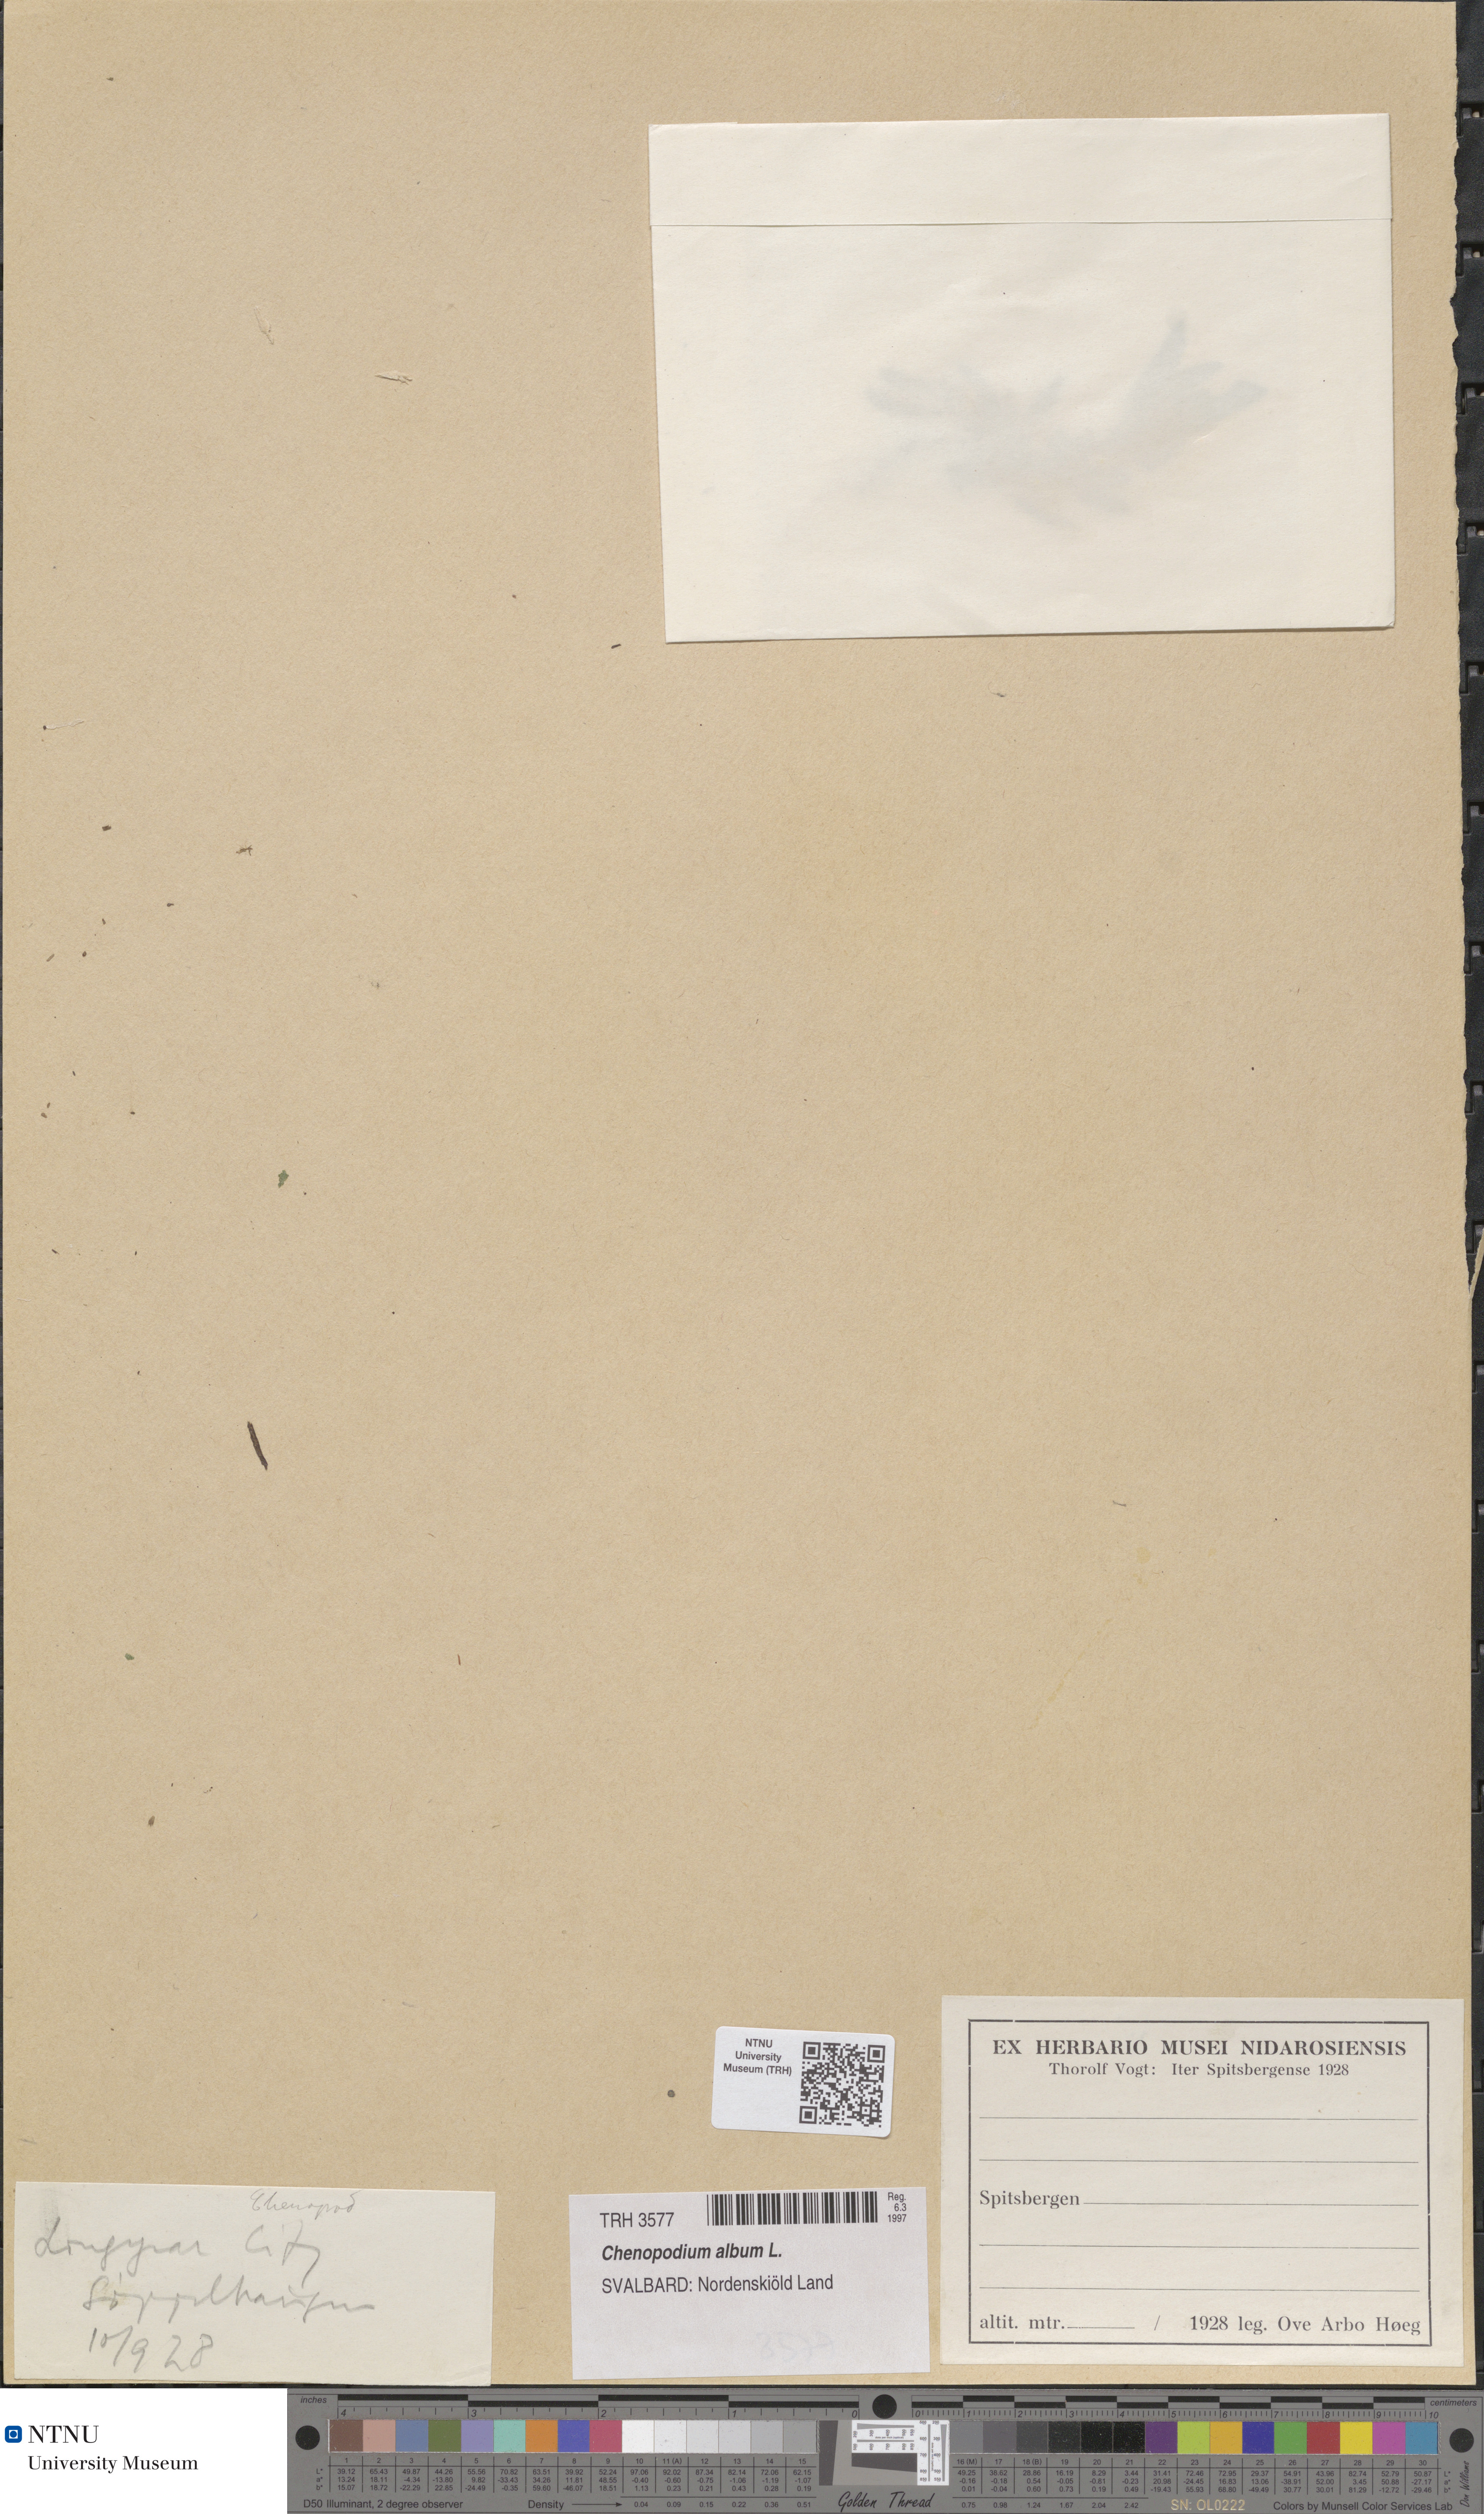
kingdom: Plantae
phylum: Tracheophyta
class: Magnoliopsida
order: Caryophyllales
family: Amaranthaceae
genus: Chenopodium
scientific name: Chenopodium album
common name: Fat-hen
